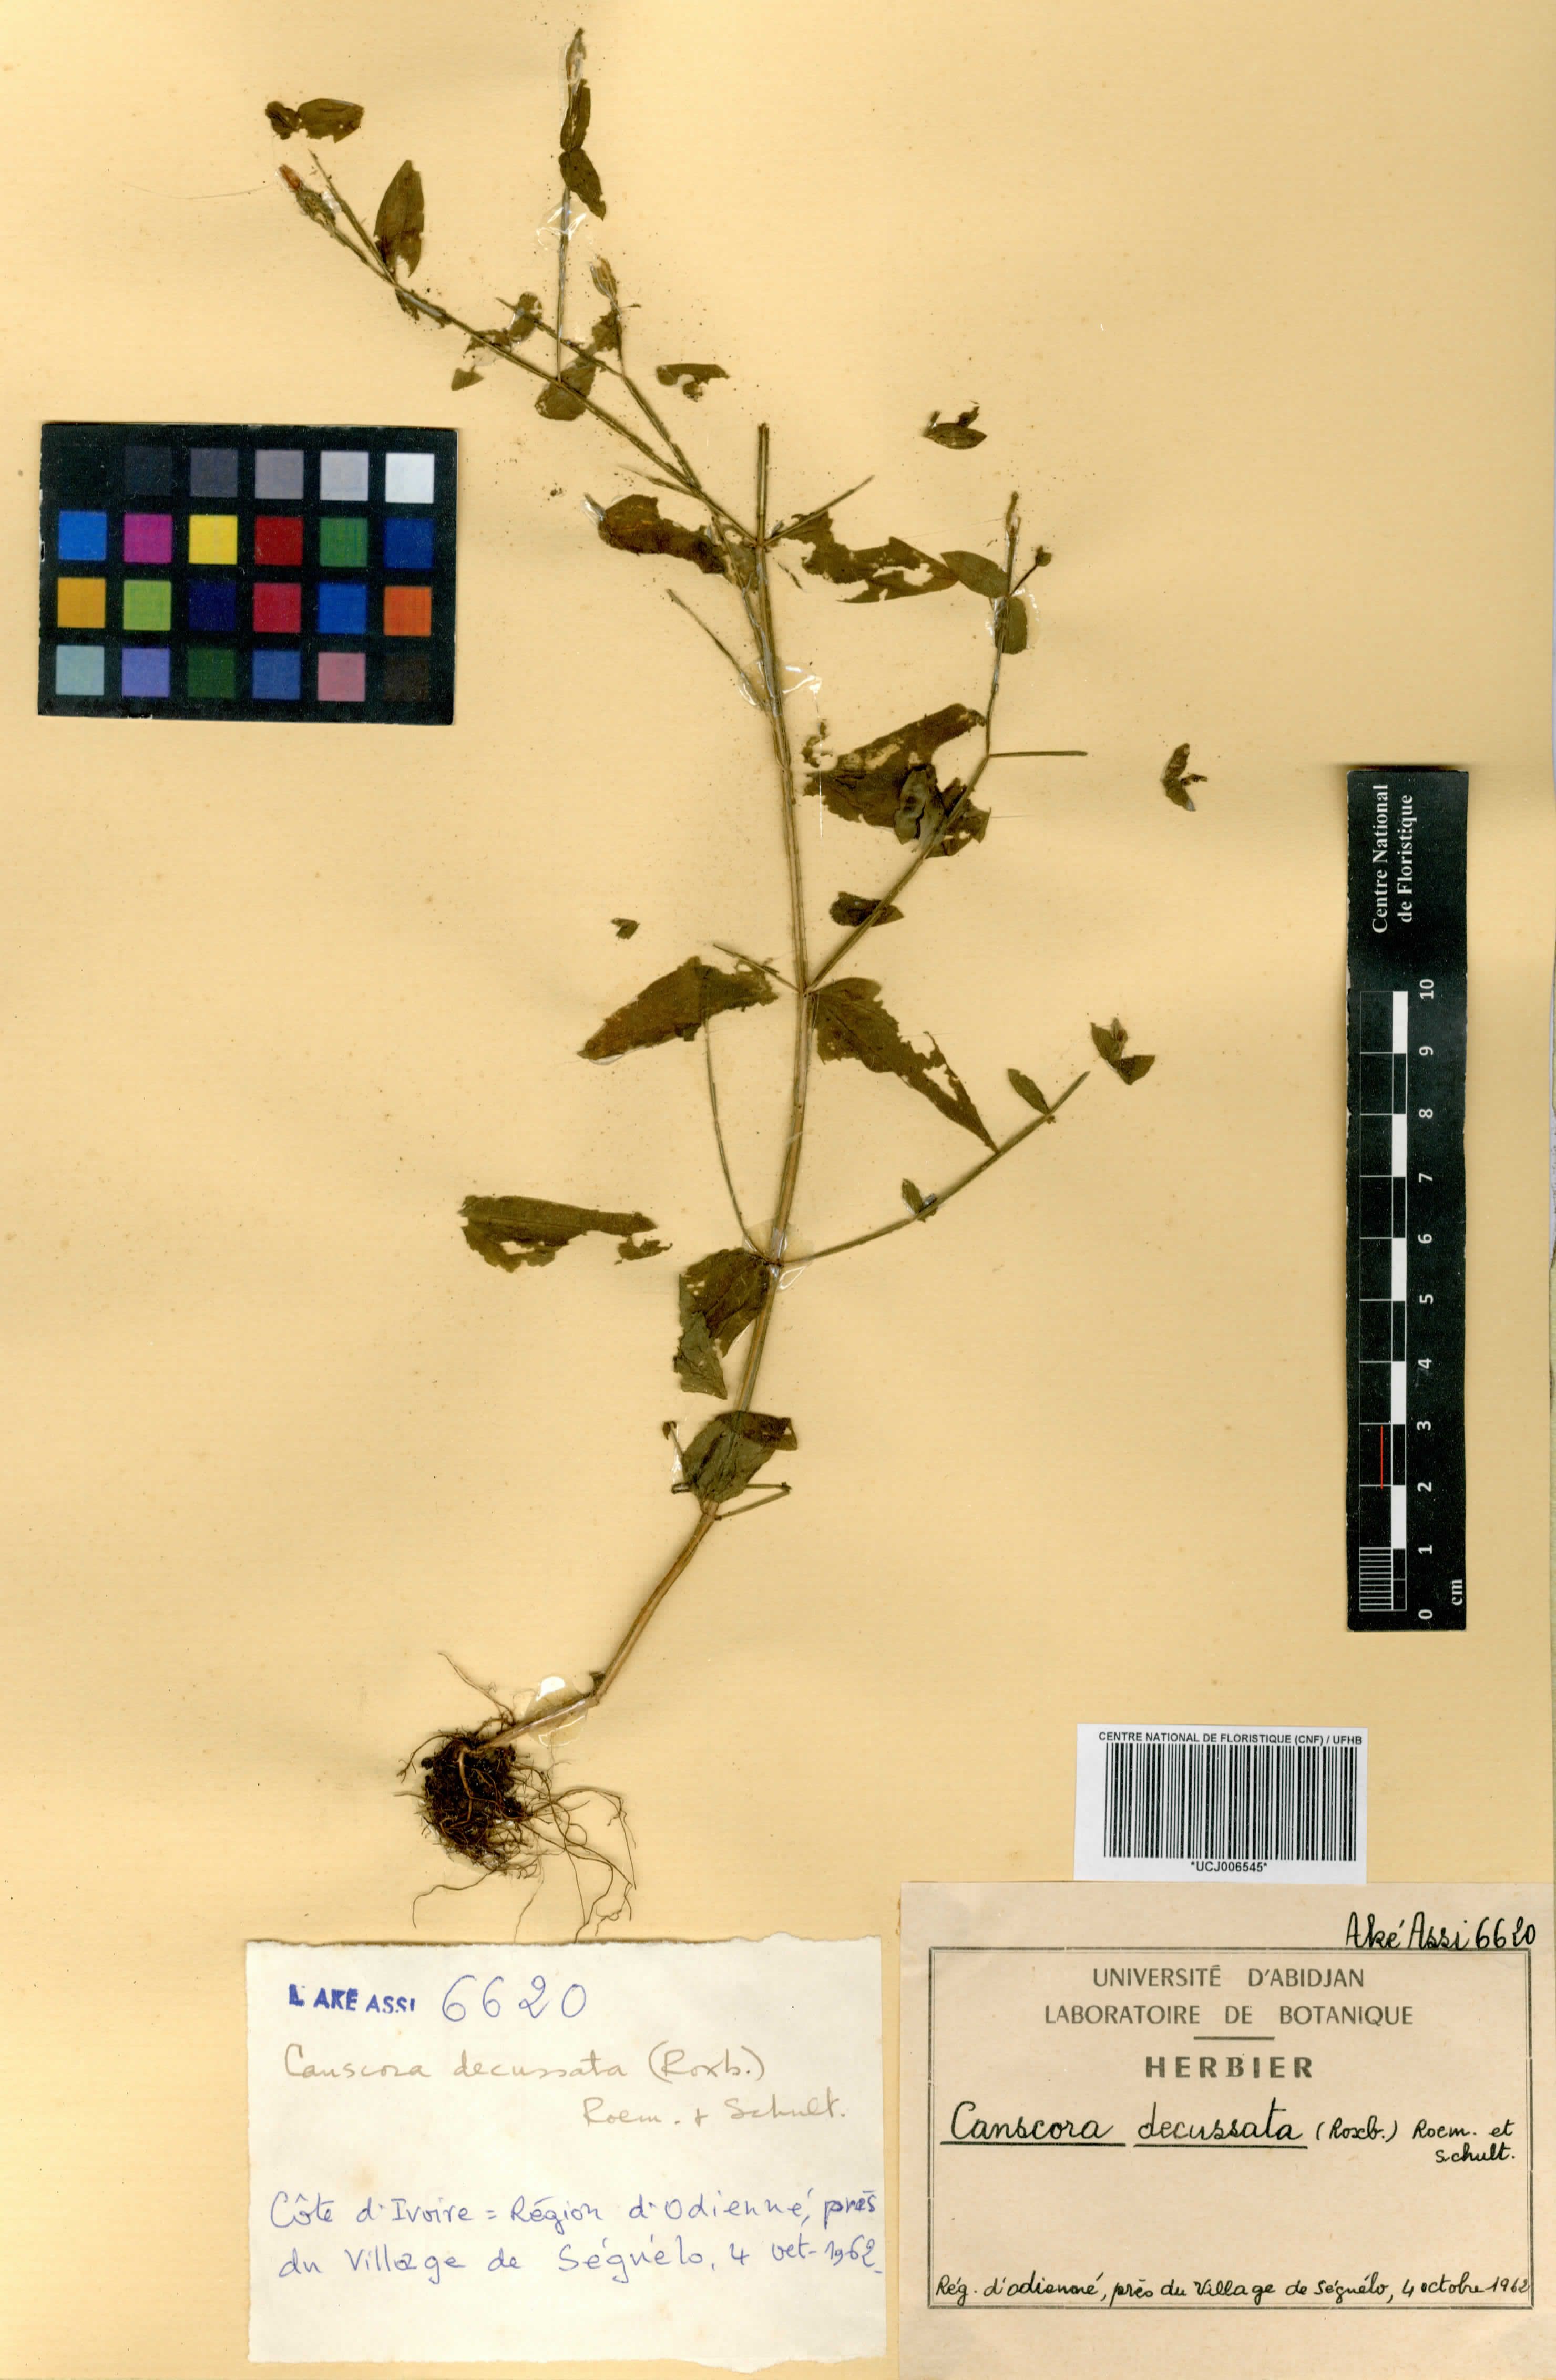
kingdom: Plantae
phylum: Tracheophyta
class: Magnoliopsida
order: Gentianales
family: Gentianaceae
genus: Canscora
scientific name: Canscora alata
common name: Canscora
